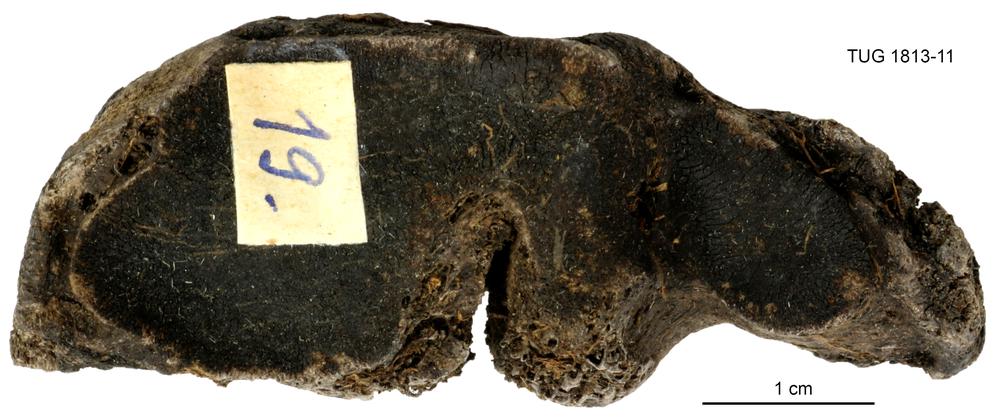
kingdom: Animalia
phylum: Chordata
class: Mammalia
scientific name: Mammalia
